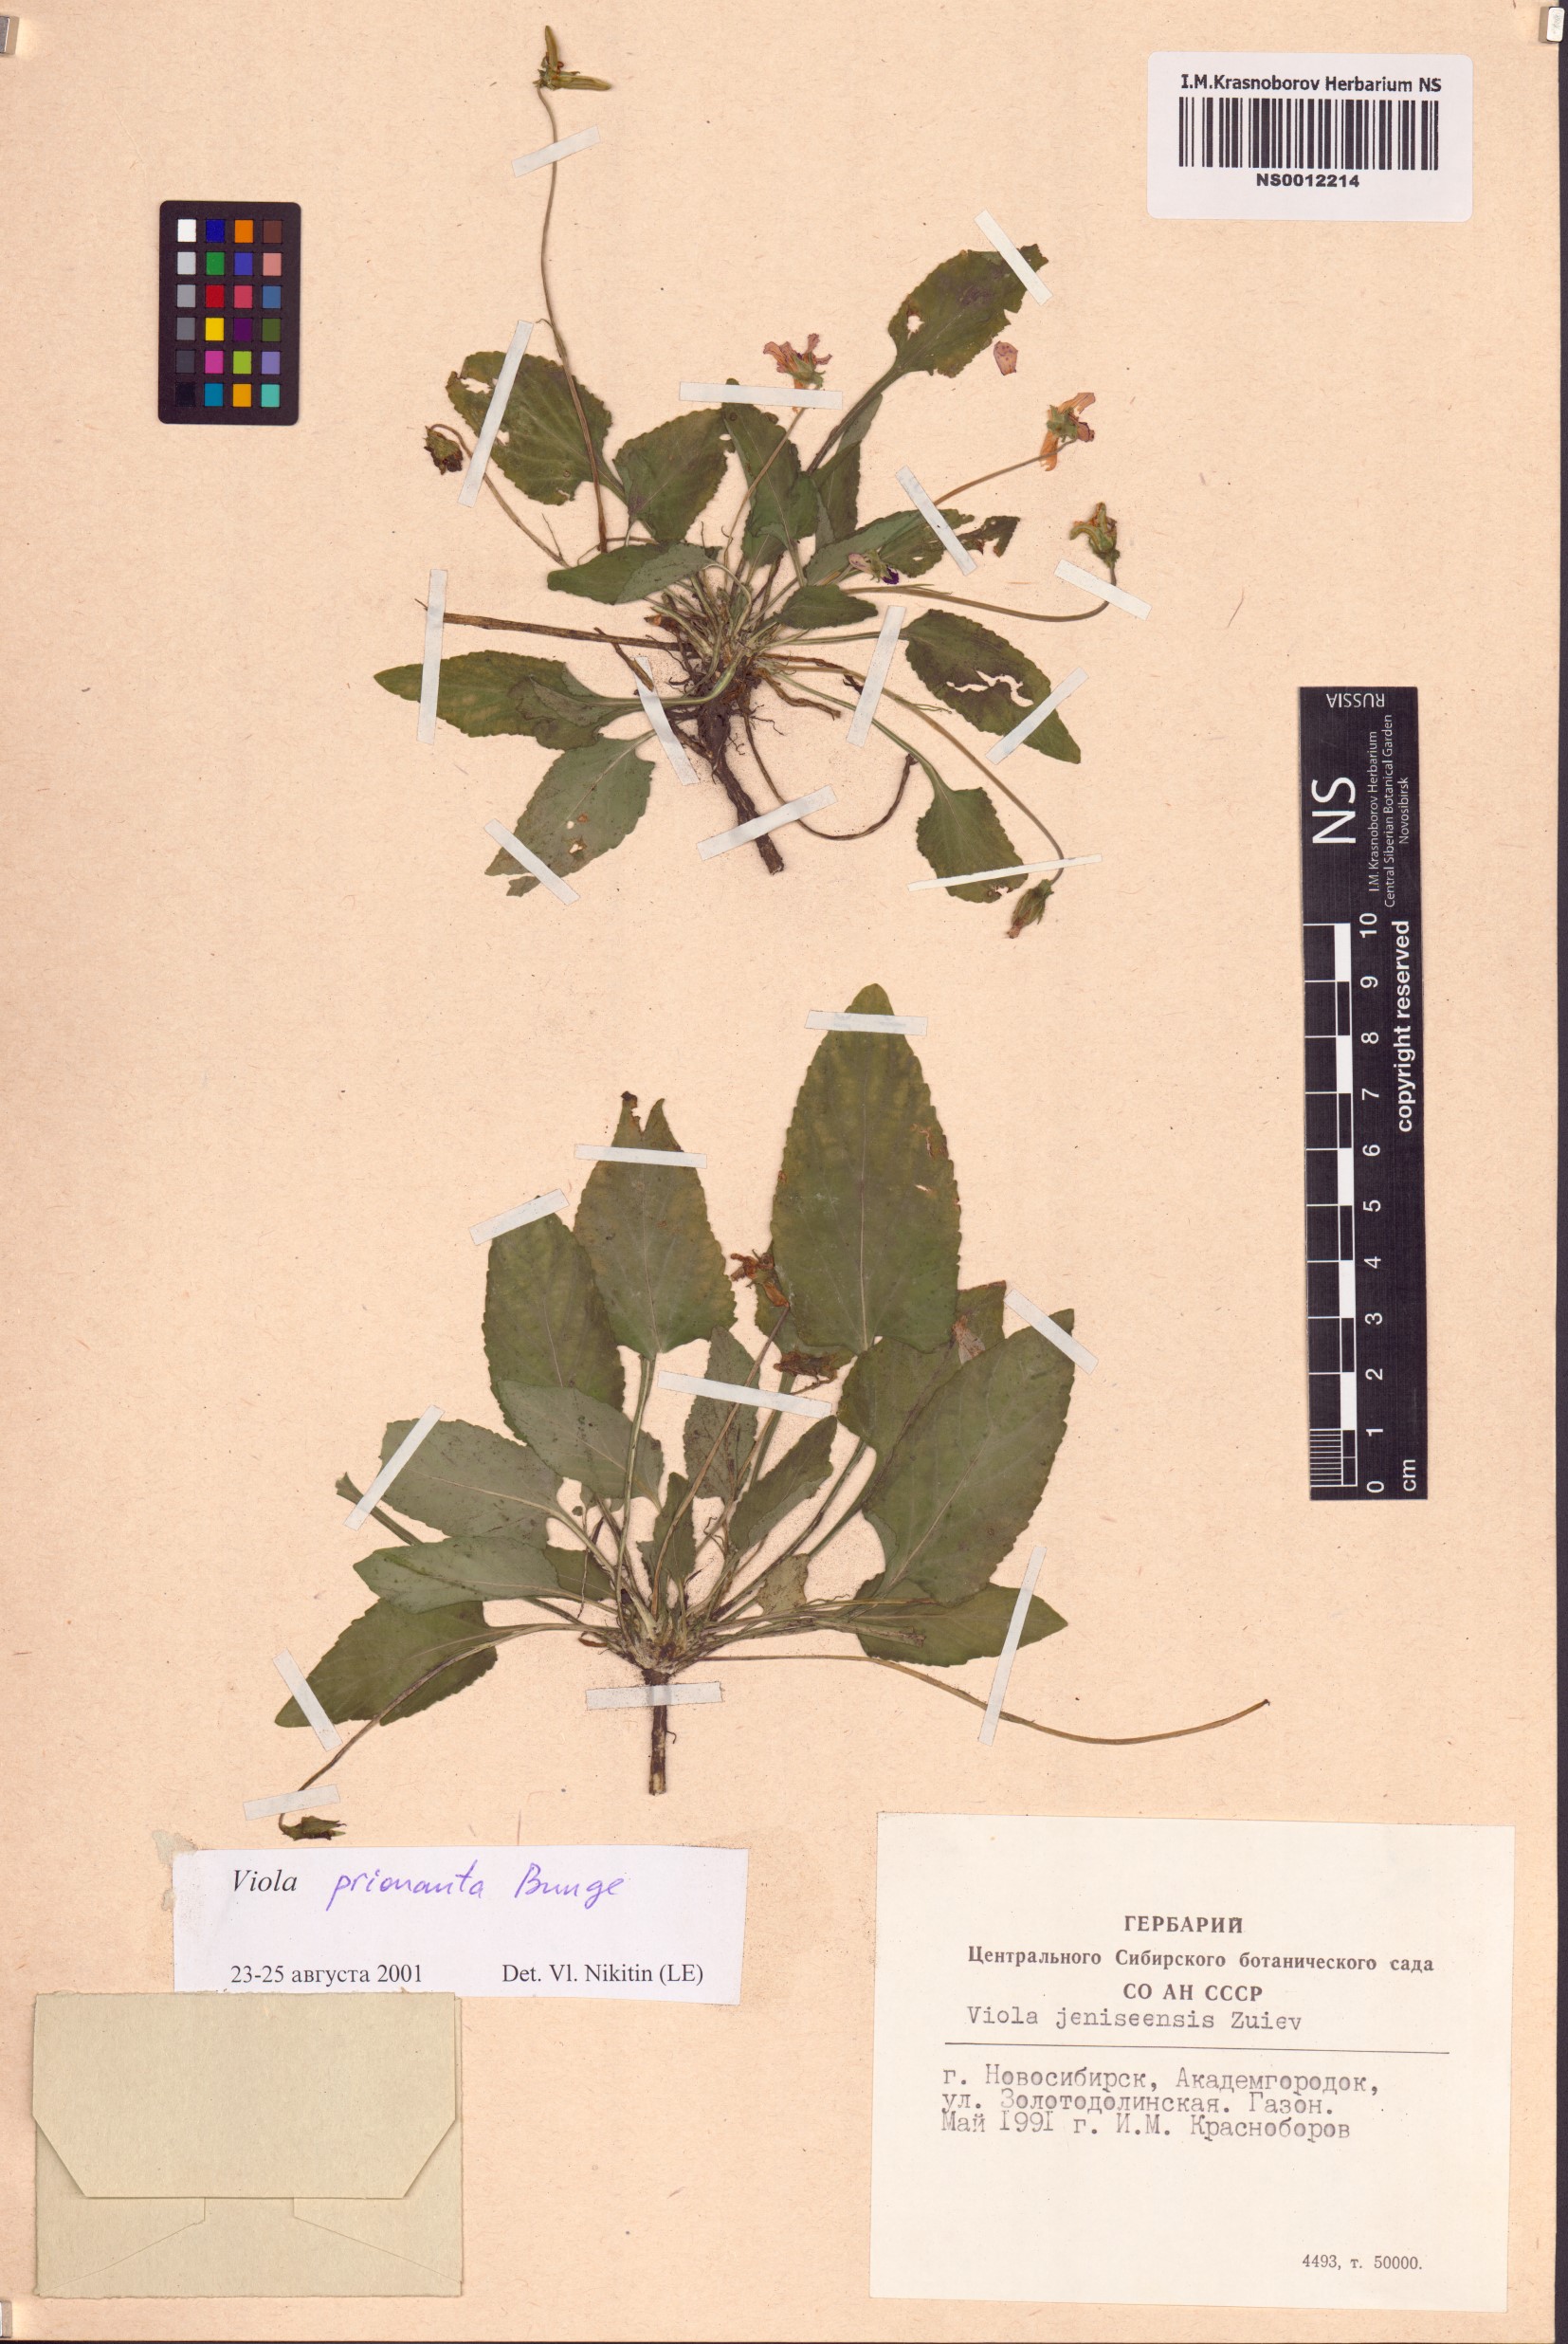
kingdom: Plantae
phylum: Tracheophyta
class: Magnoliopsida
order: Malpighiales
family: Violaceae
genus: Viola
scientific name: Viola prionantha
